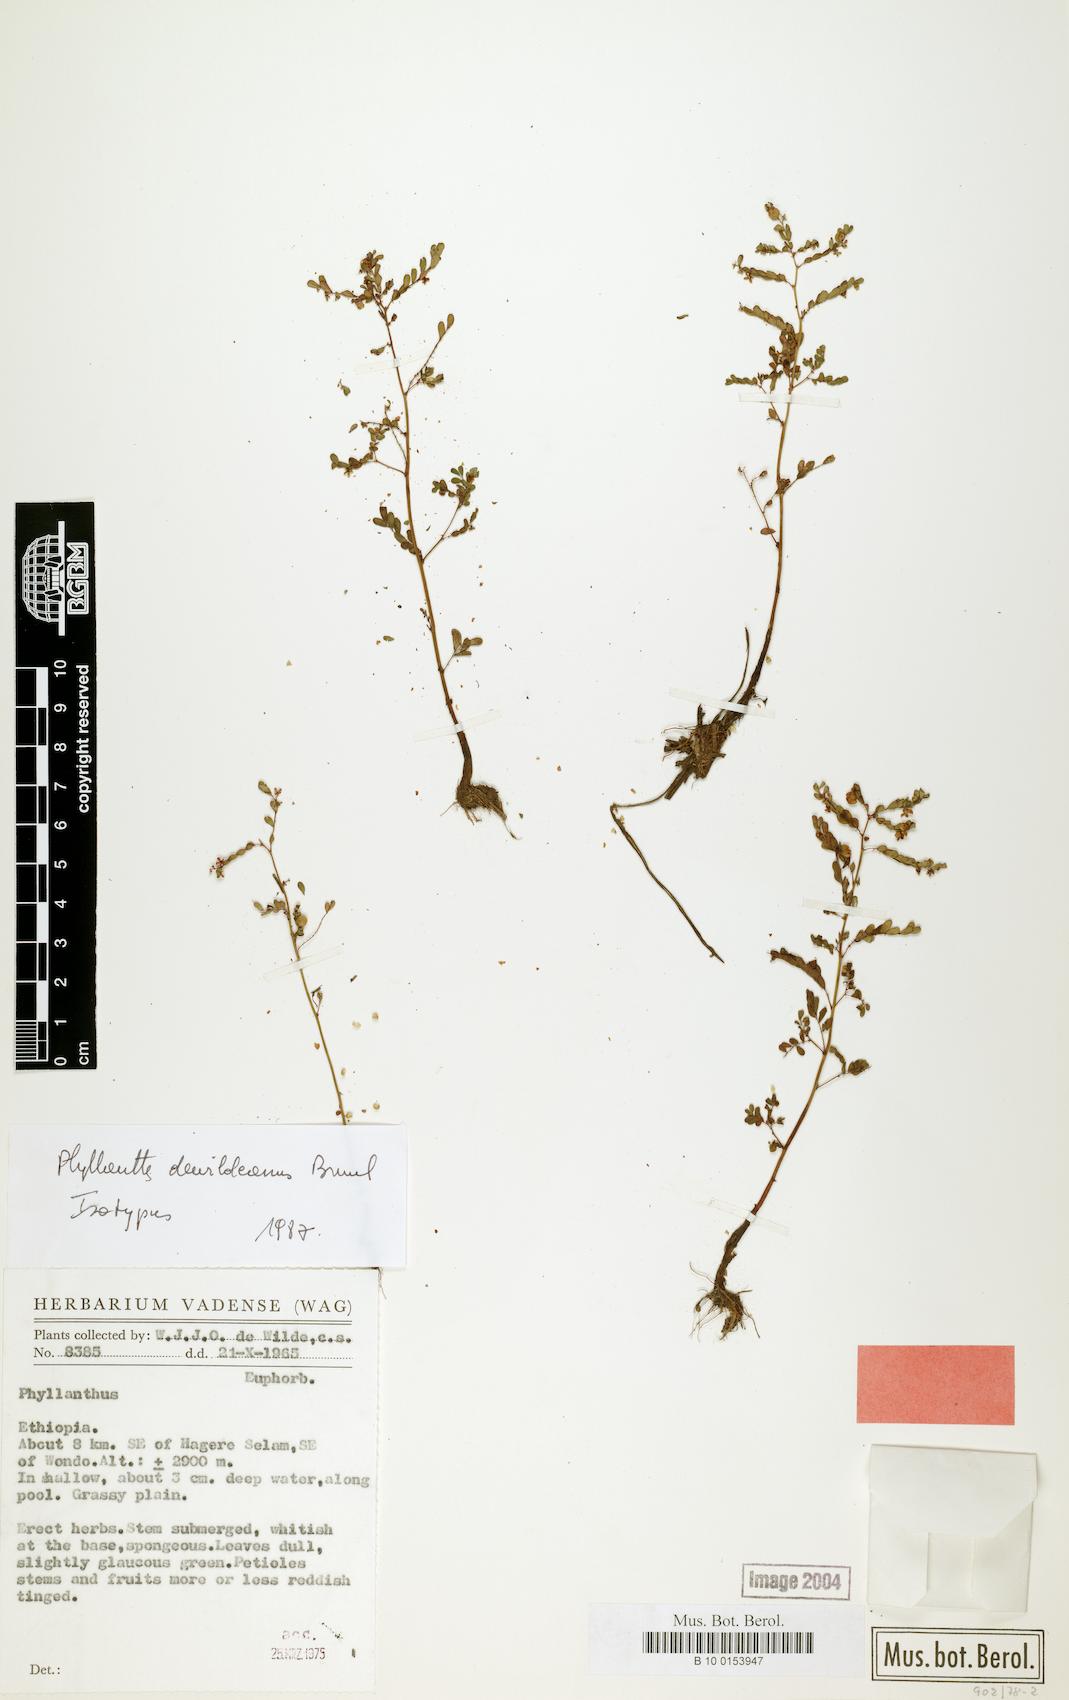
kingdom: Plantae
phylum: Tracheophyta
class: Magnoliopsida
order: Malpighiales
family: Phyllanthaceae
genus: Phyllanthus
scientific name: Phyllanthus oblongiglans
